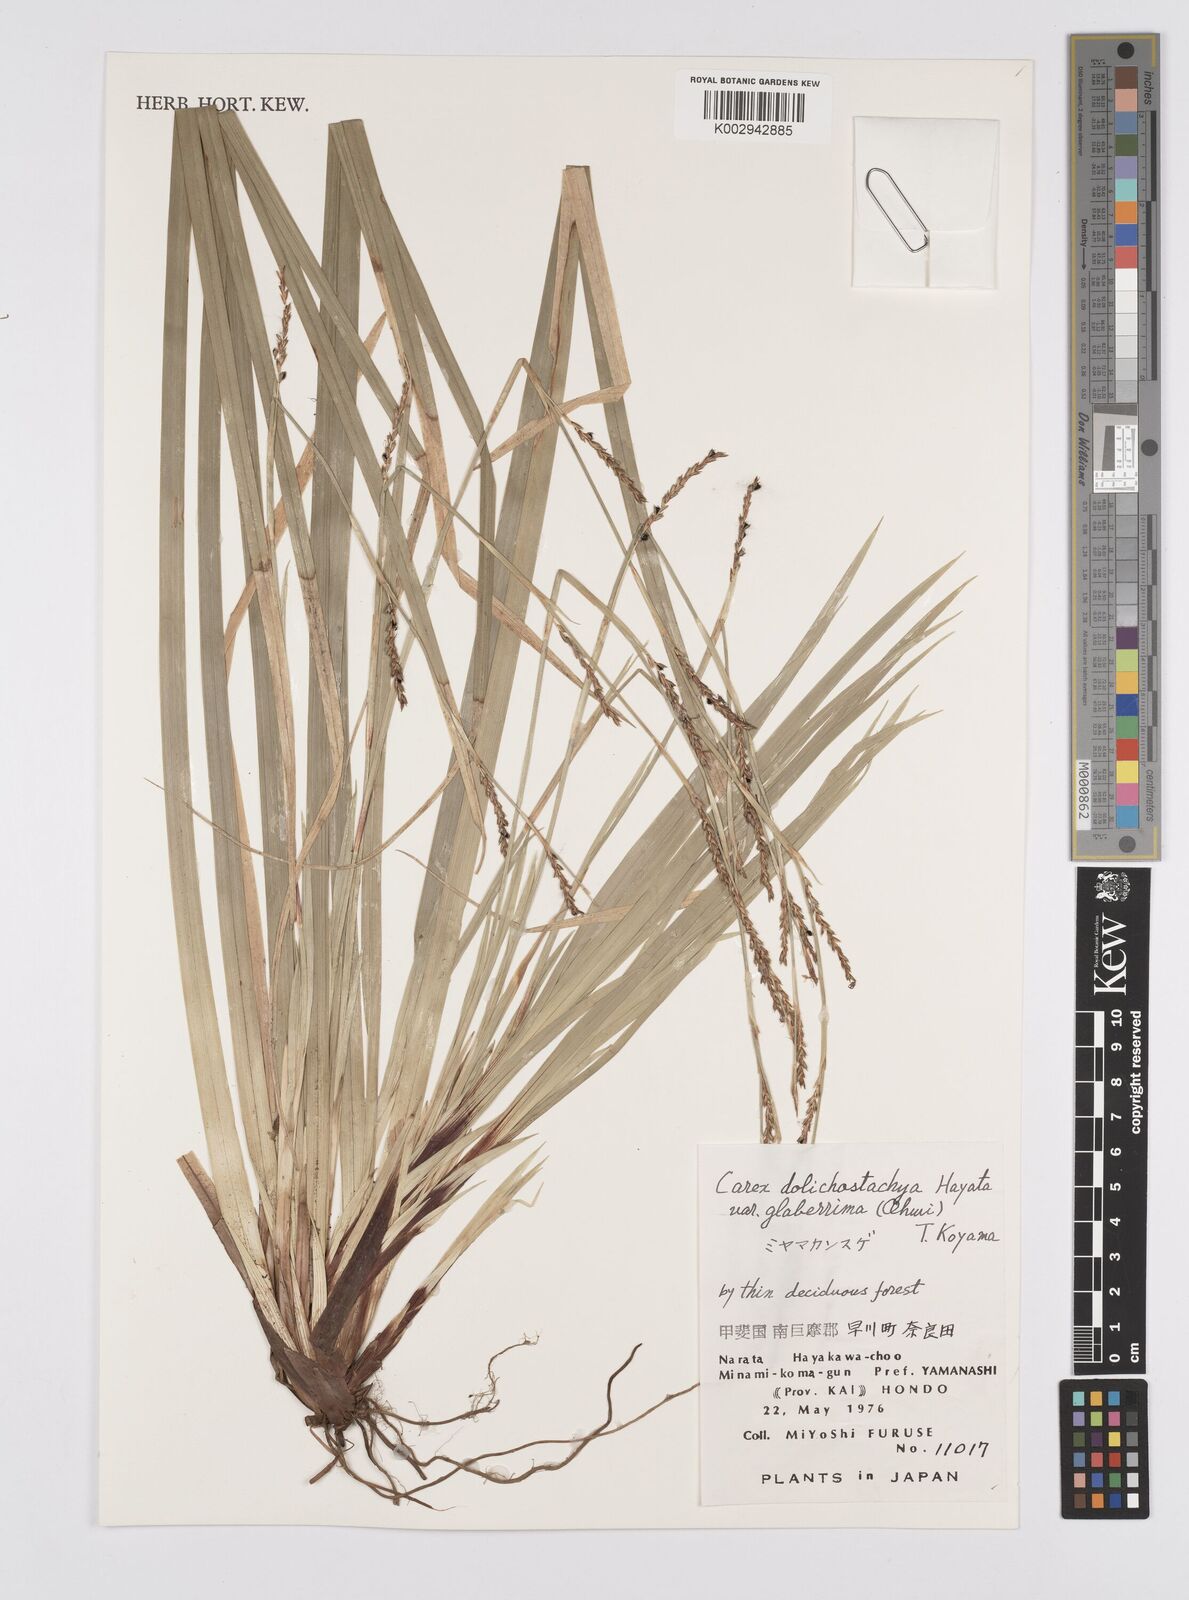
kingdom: Plantae
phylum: Tracheophyta
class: Liliopsida
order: Poales
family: Cyperaceae
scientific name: Cyperaceae
